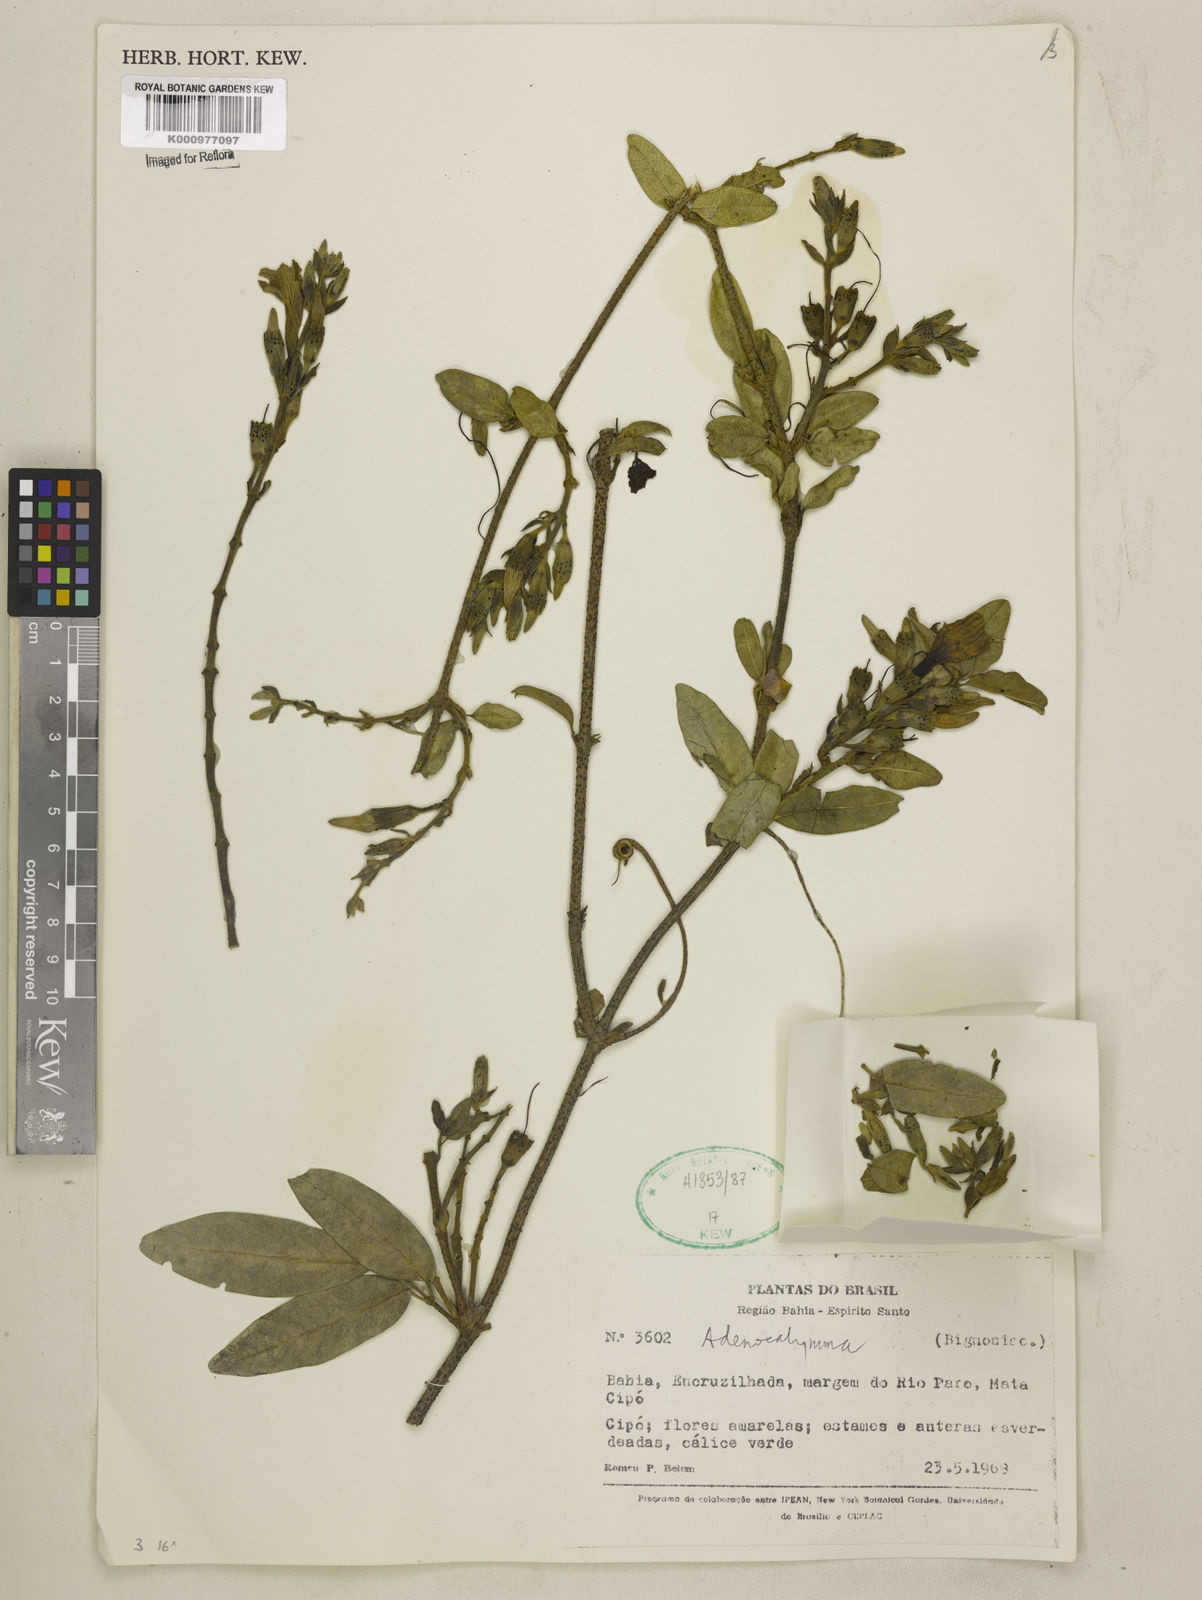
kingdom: Plantae
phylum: Tracheophyta
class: Magnoliopsida
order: Lamiales
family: Bignoniaceae
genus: Adenocalymma
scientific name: Adenocalymma
